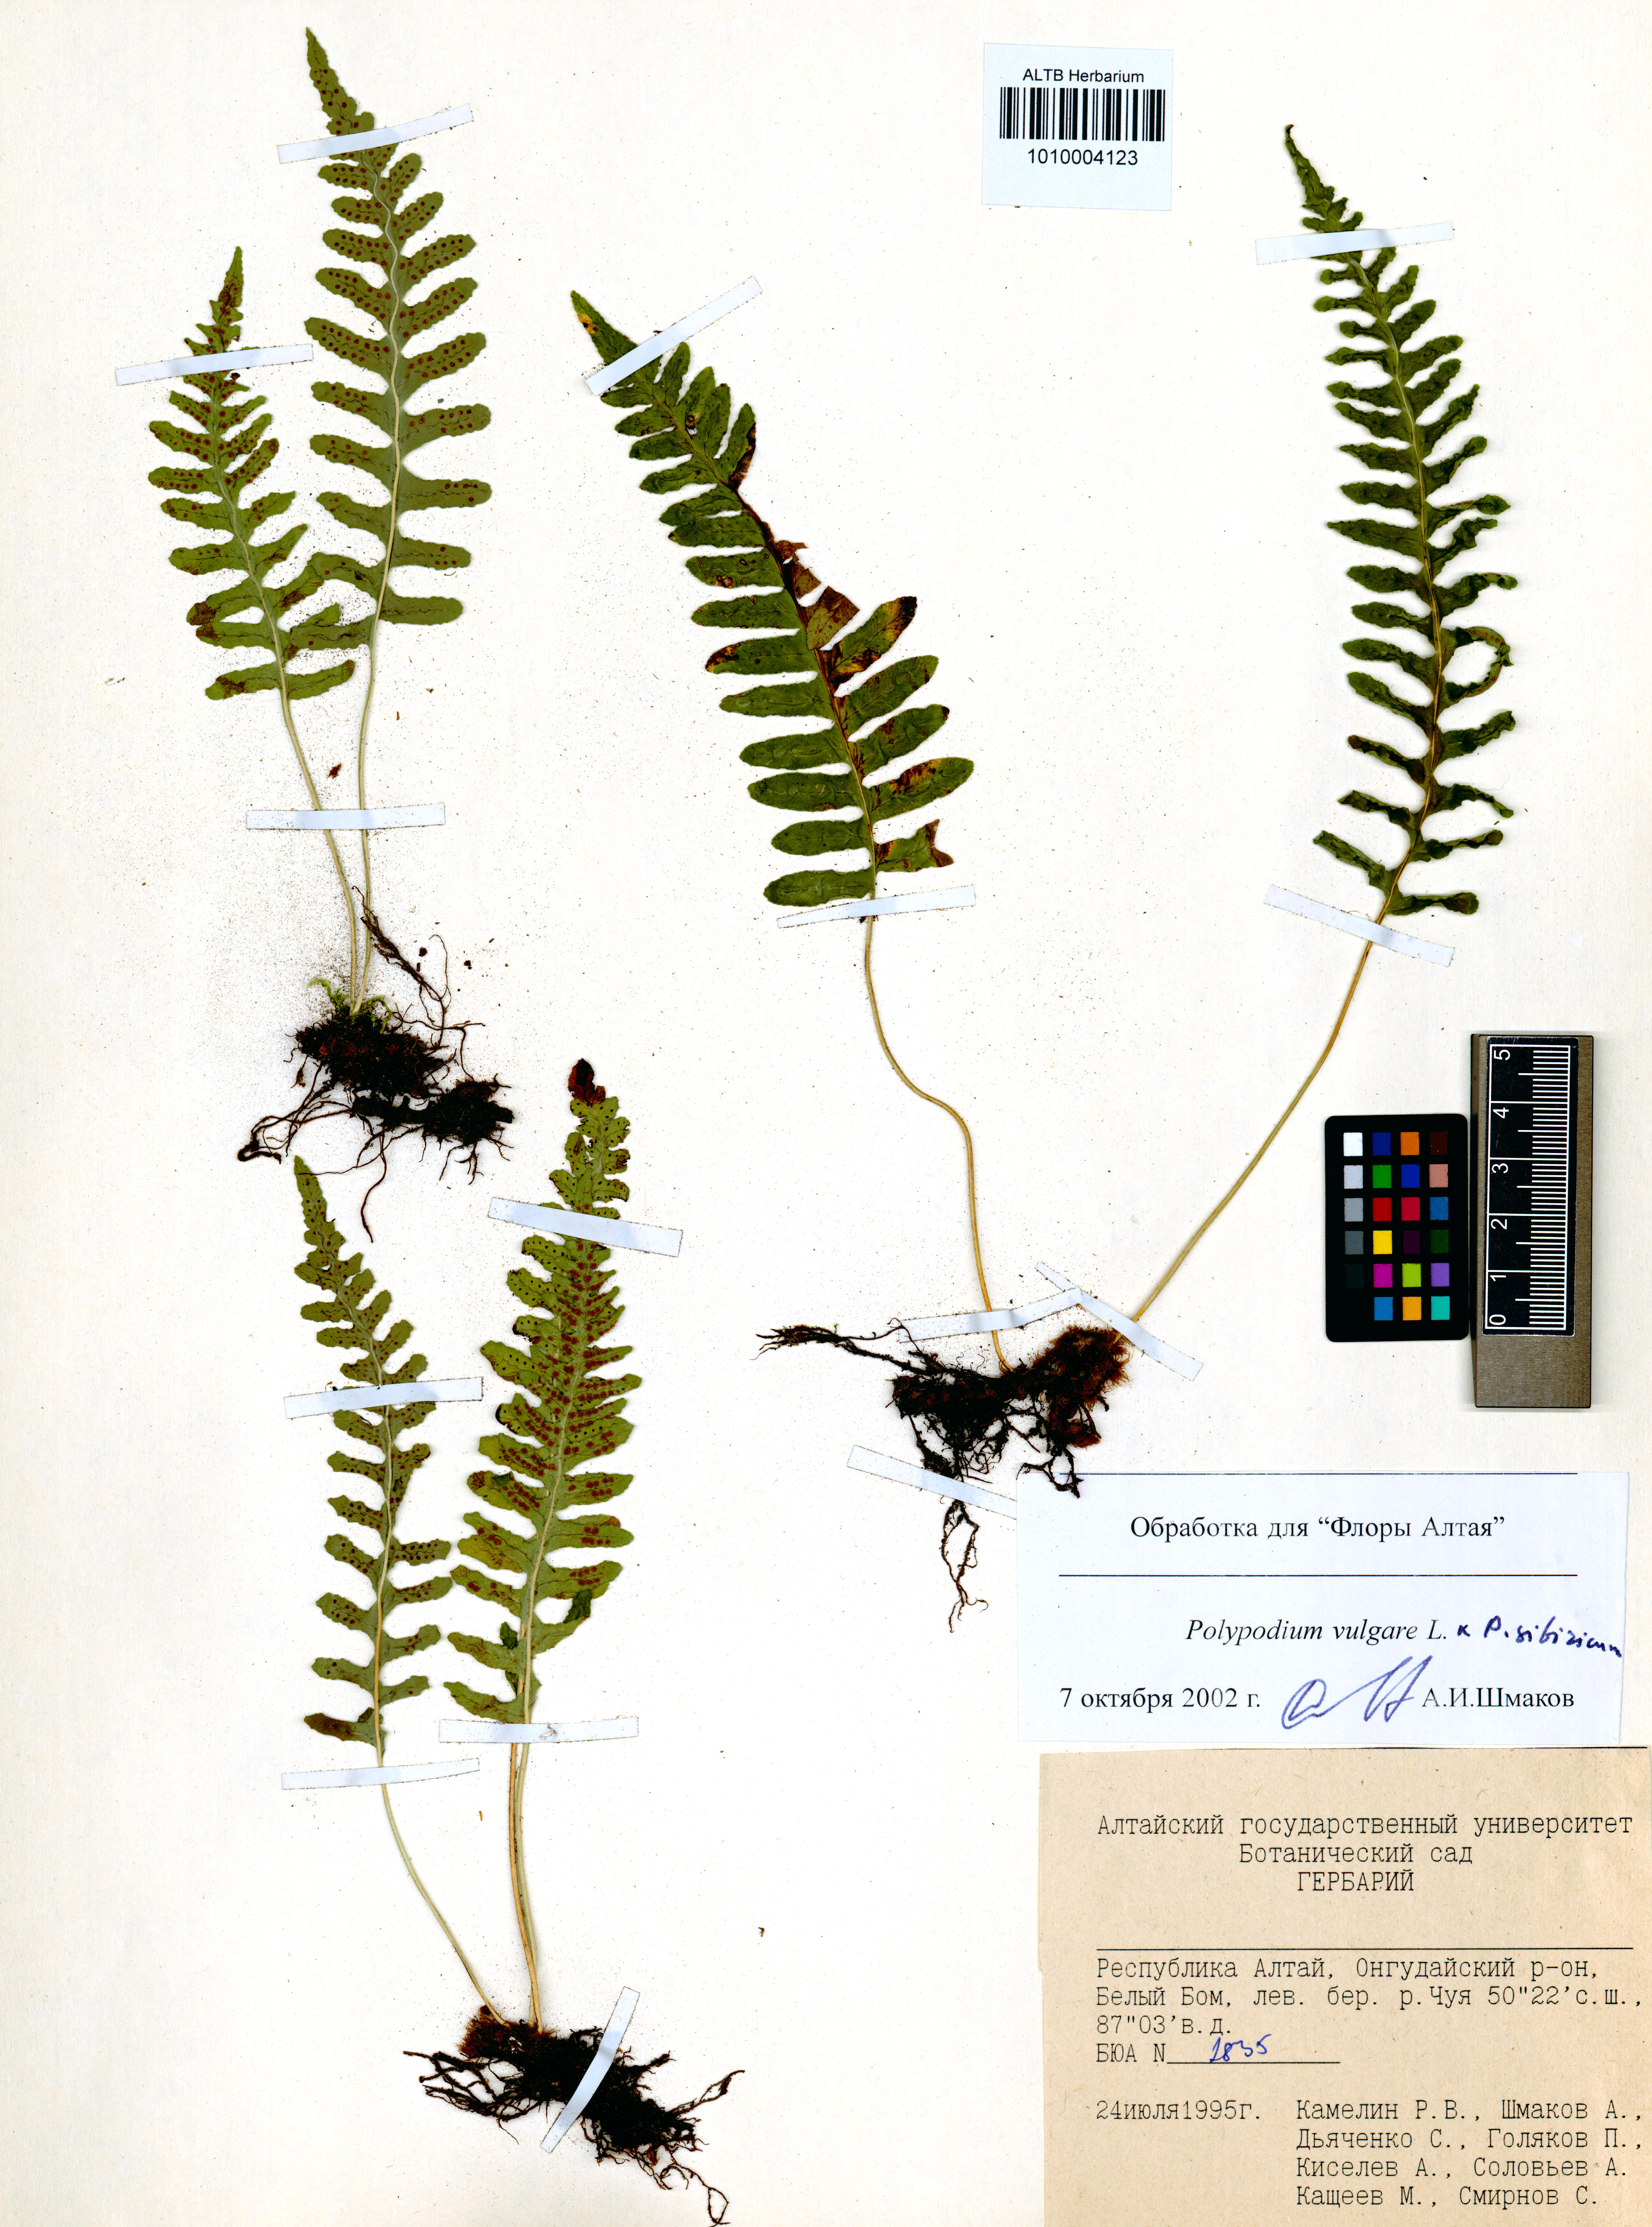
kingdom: Plantae
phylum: Tracheophyta
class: Polypodiopsida
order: Polypodiales
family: Polypodiaceae
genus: Polypodium
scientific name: Polypodium vulgare
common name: Common polypody
